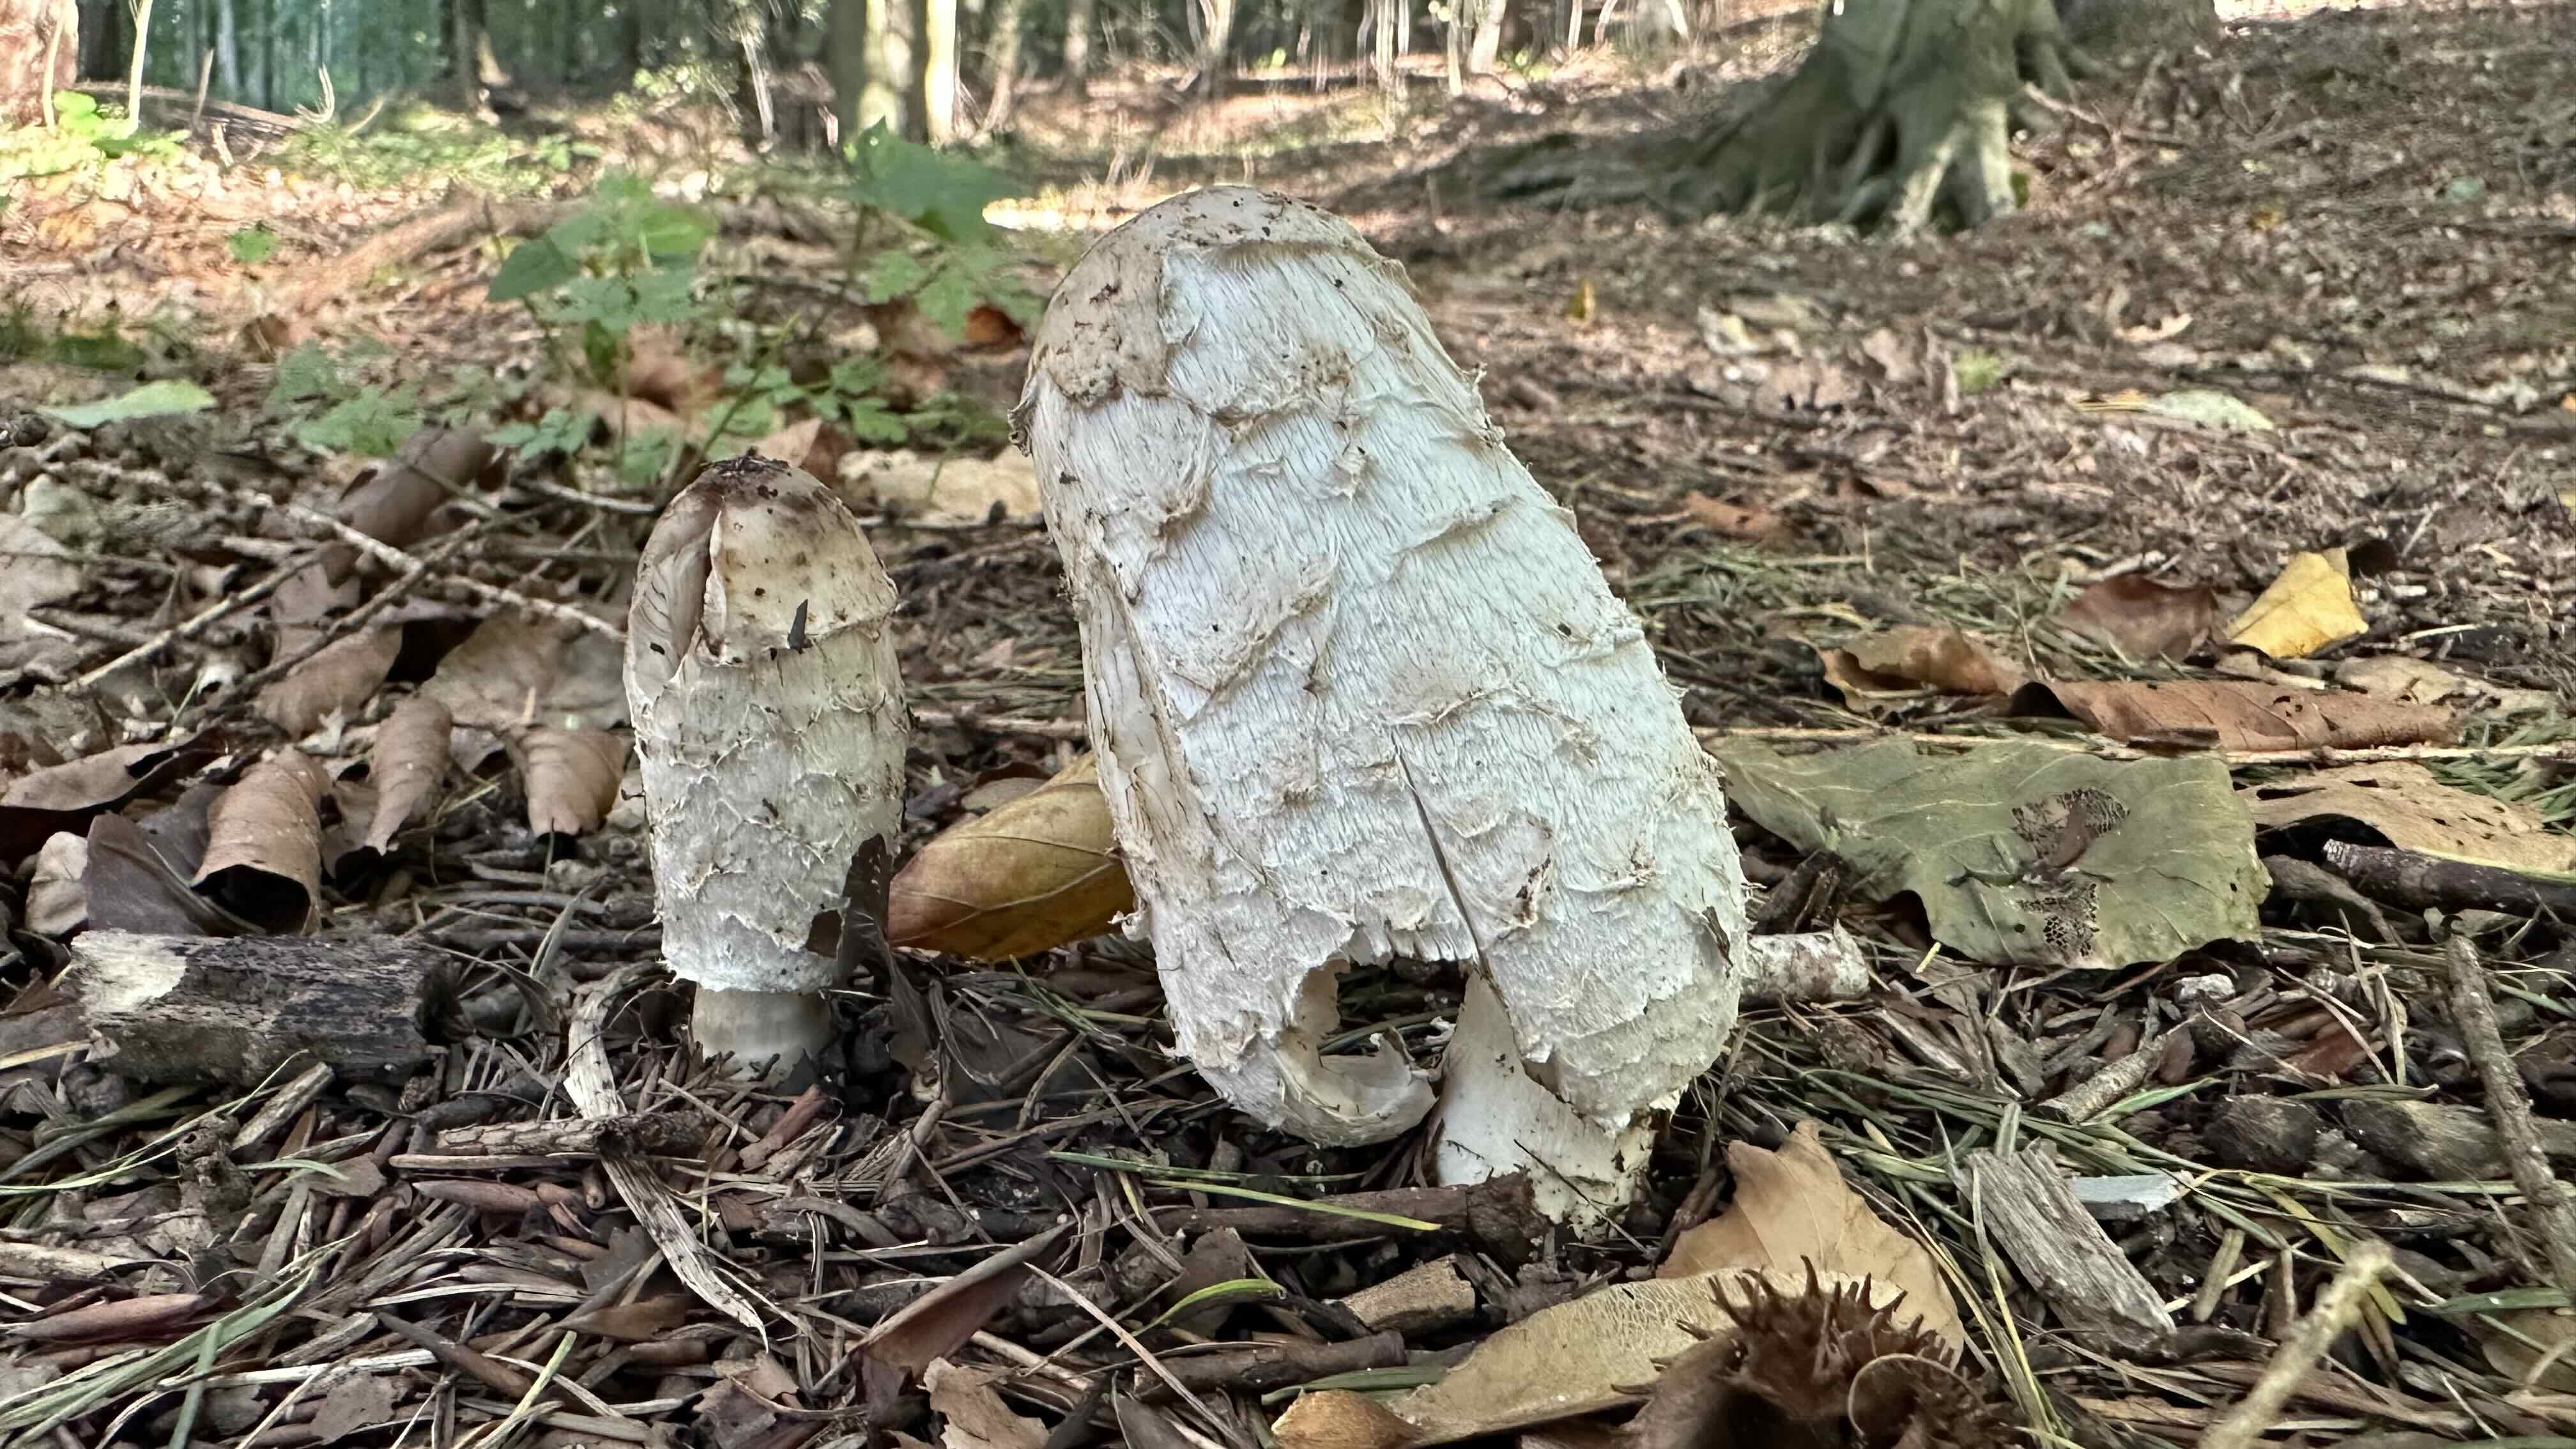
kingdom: Fungi
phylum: Basidiomycota
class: Agaricomycetes
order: Agaricales
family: Agaricaceae
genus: Coprinus
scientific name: Coprinus comatus
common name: stor parykhat
